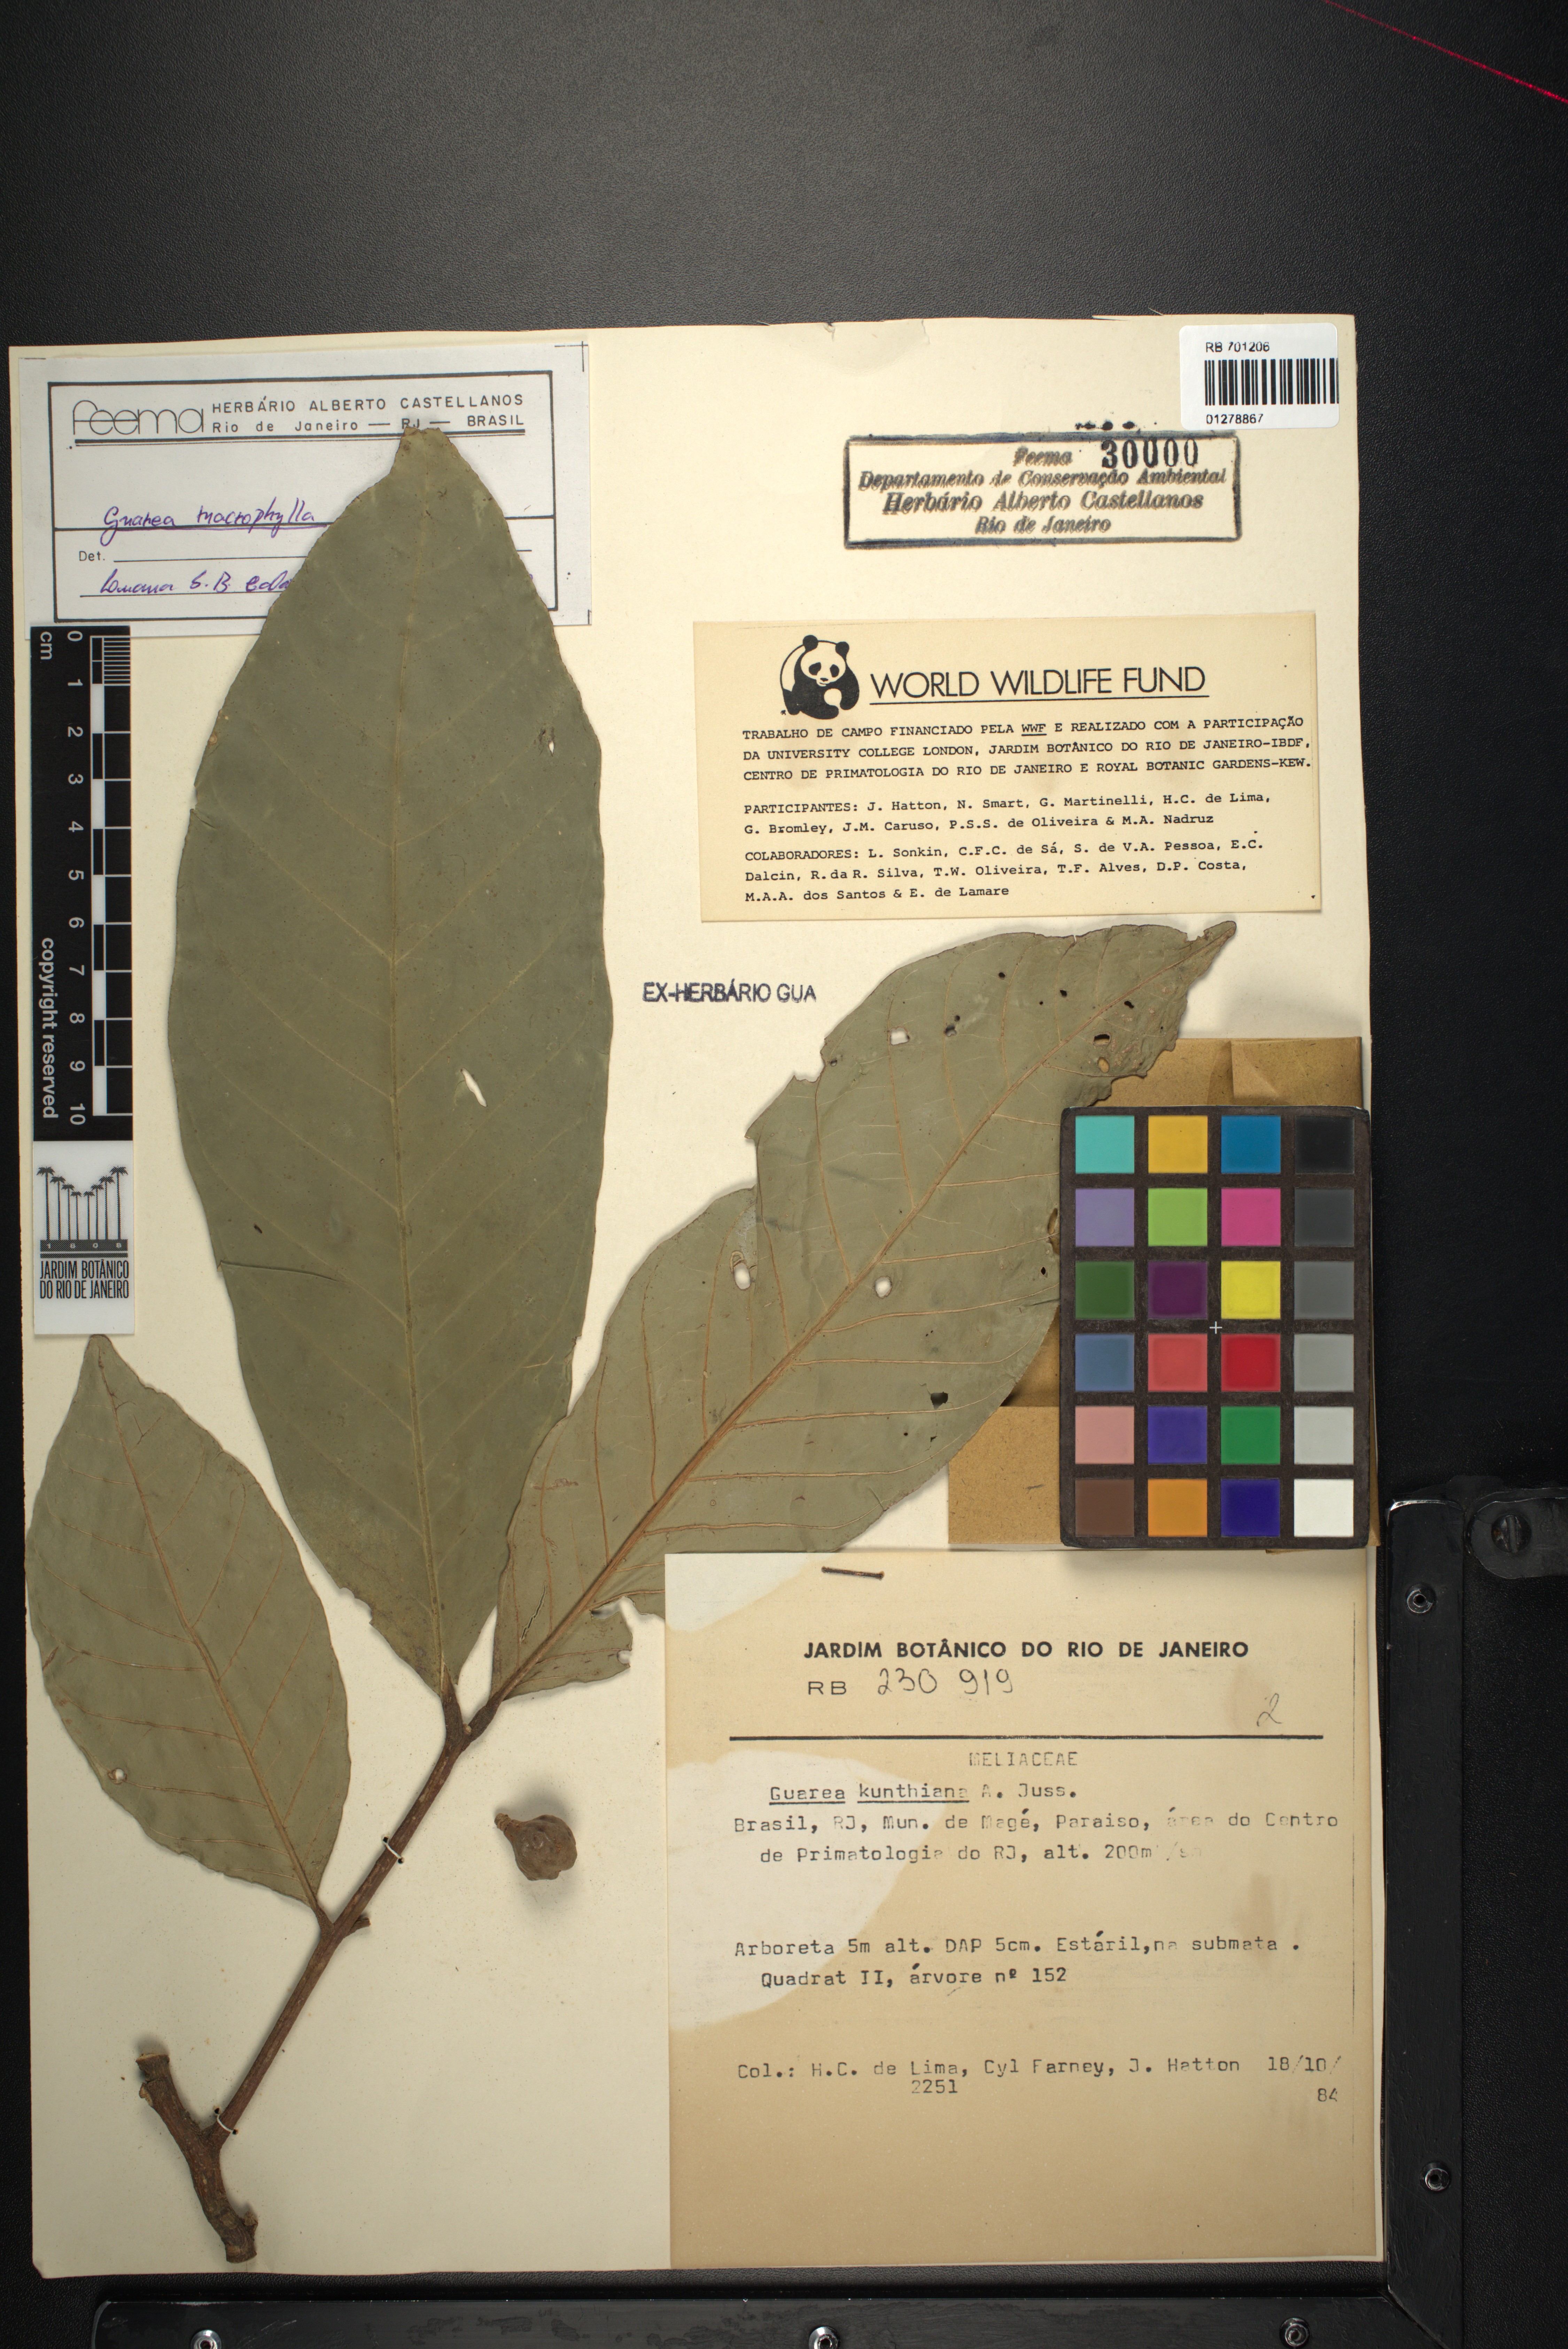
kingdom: Plantae
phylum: Tracheophyta
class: Magnoliopsida
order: Sapindales
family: Meliaceae
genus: Guarea
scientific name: Guarea macrophylla
